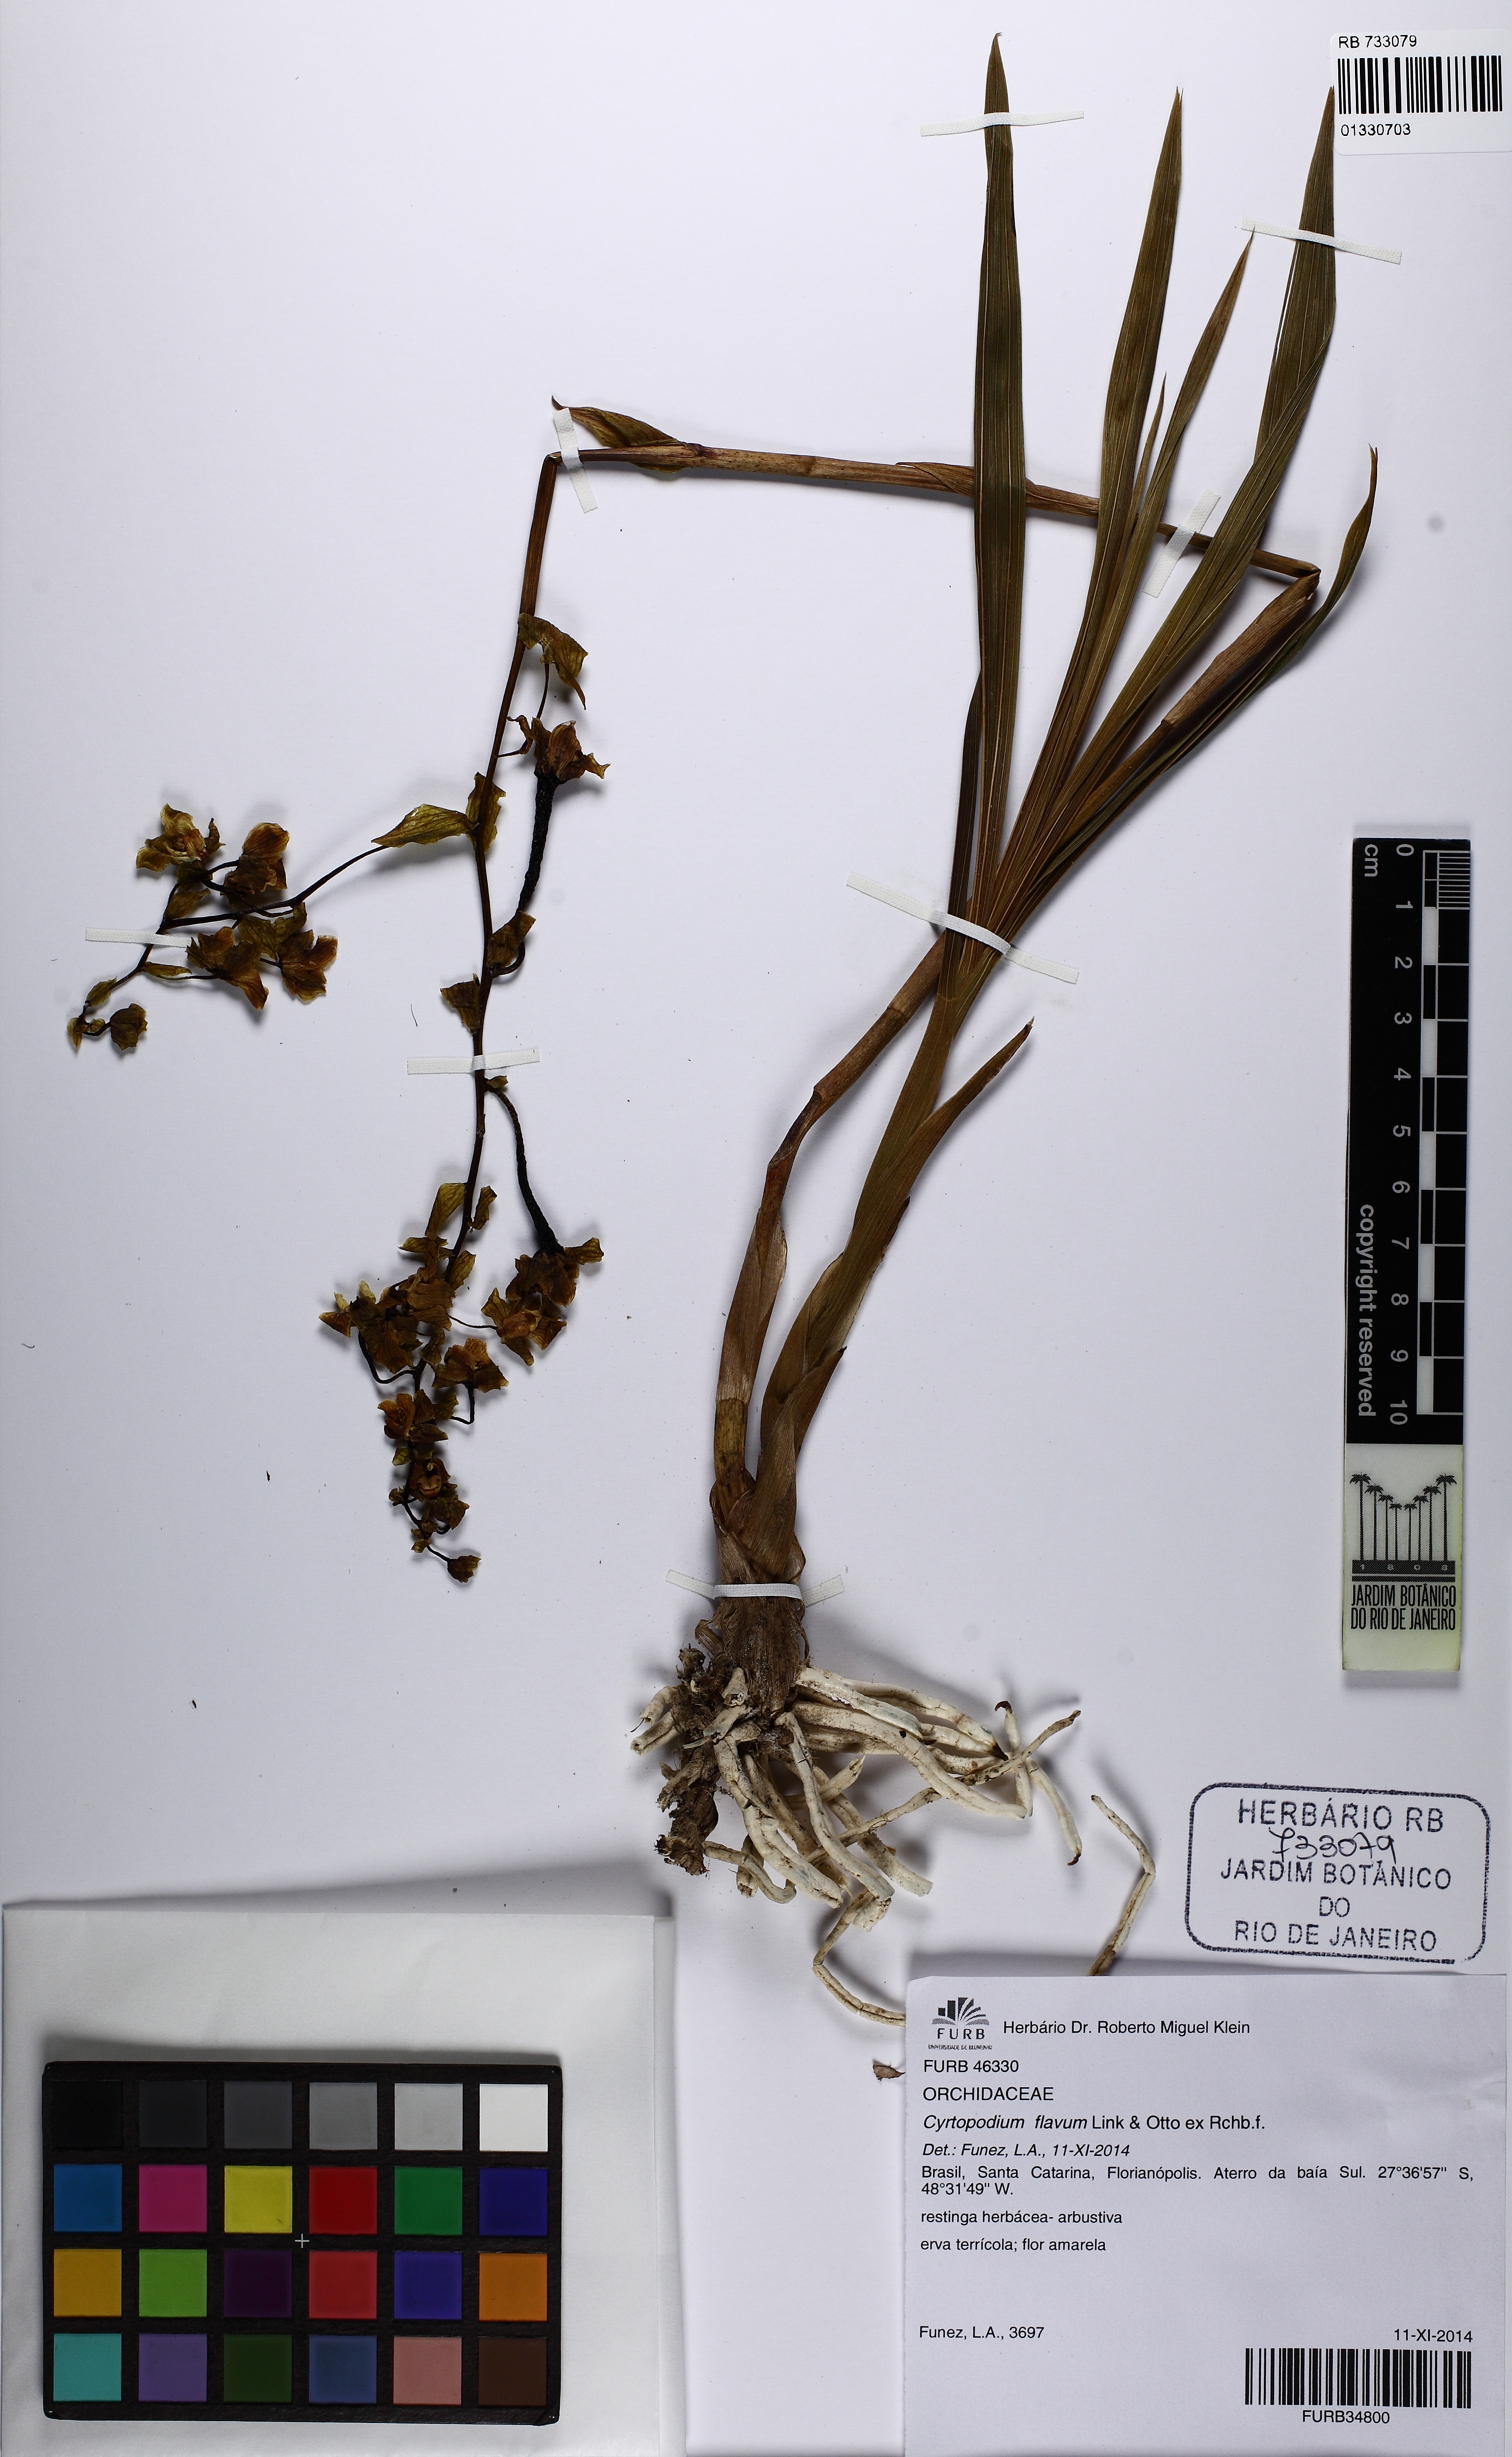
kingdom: Plantae
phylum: Tracheophyta
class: Liliopsida
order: Asparagales
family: Orchidaceae
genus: Cyrtopodium
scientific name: Cyrtopodium flavum
